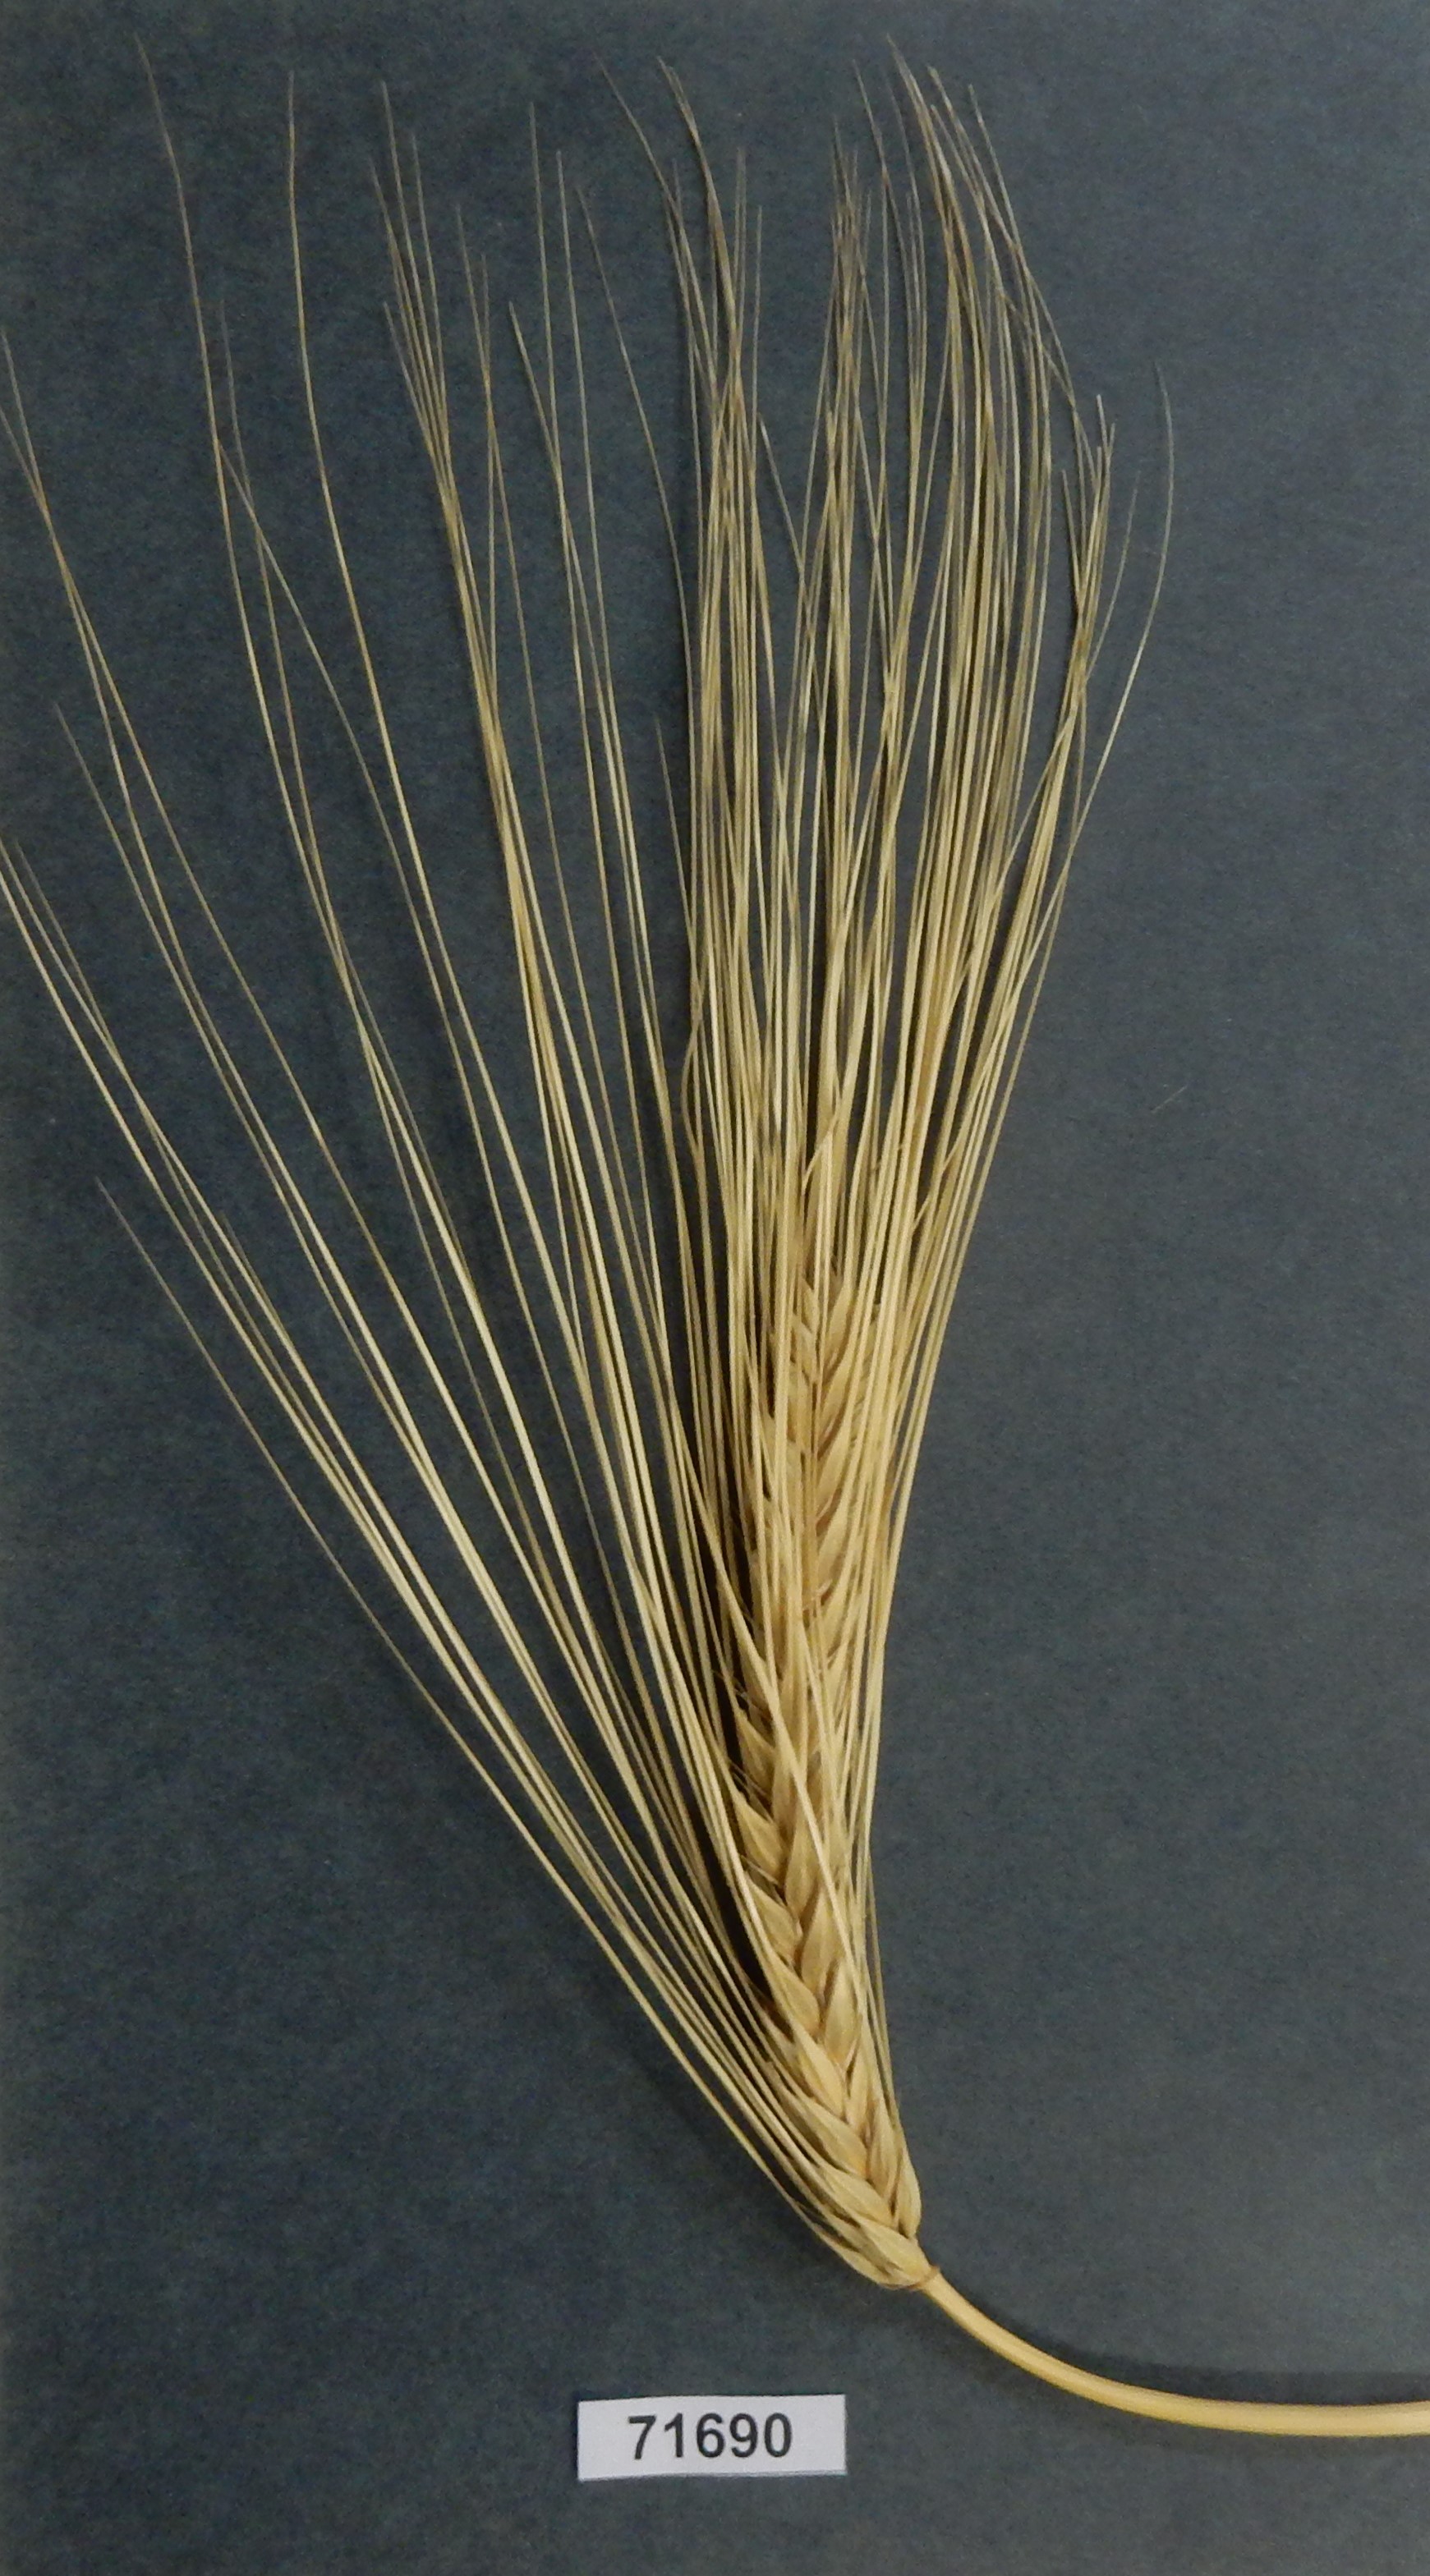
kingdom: Plantae
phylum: Tracheophyta
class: Liliopsida
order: Poales
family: Poaceae
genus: Hordeum
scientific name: Hordeum vulgare
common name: Barley
